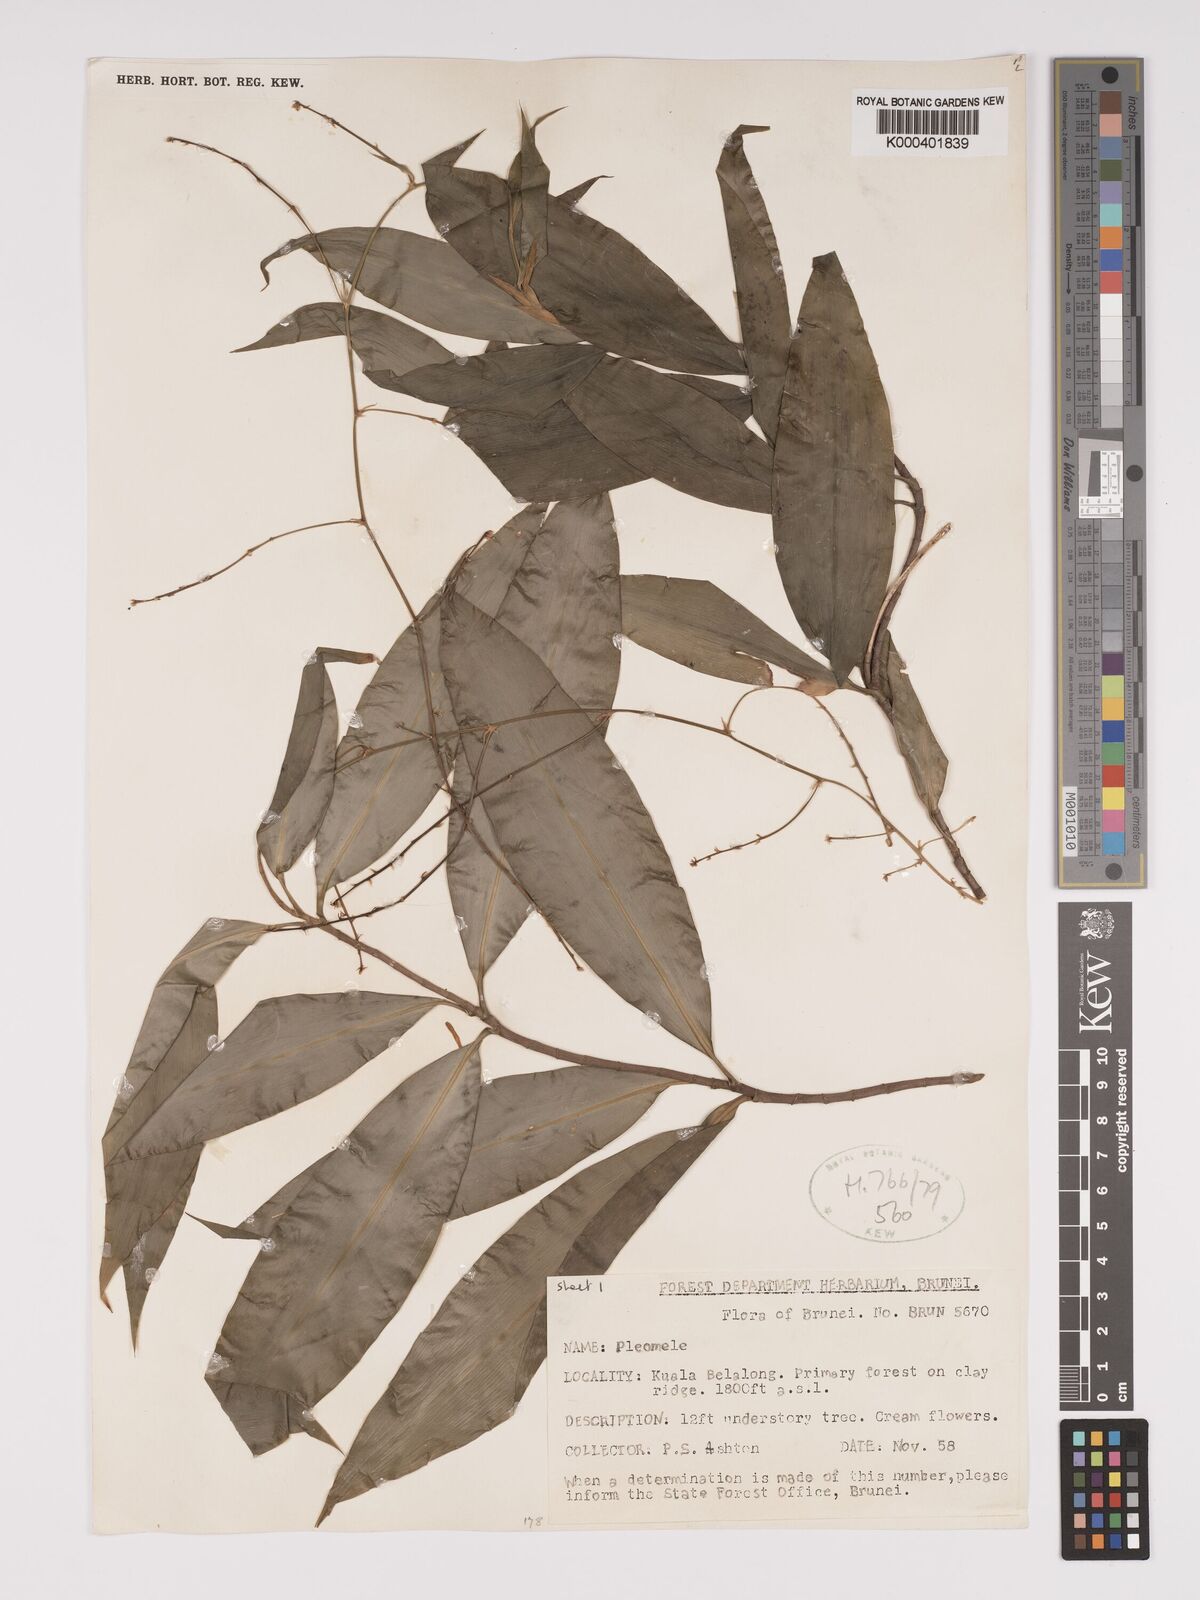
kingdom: Plantae
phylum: Tracheophyta
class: Liliopsida
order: Asparagales
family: Asparagaceae
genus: Dracaena
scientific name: Dracaena
